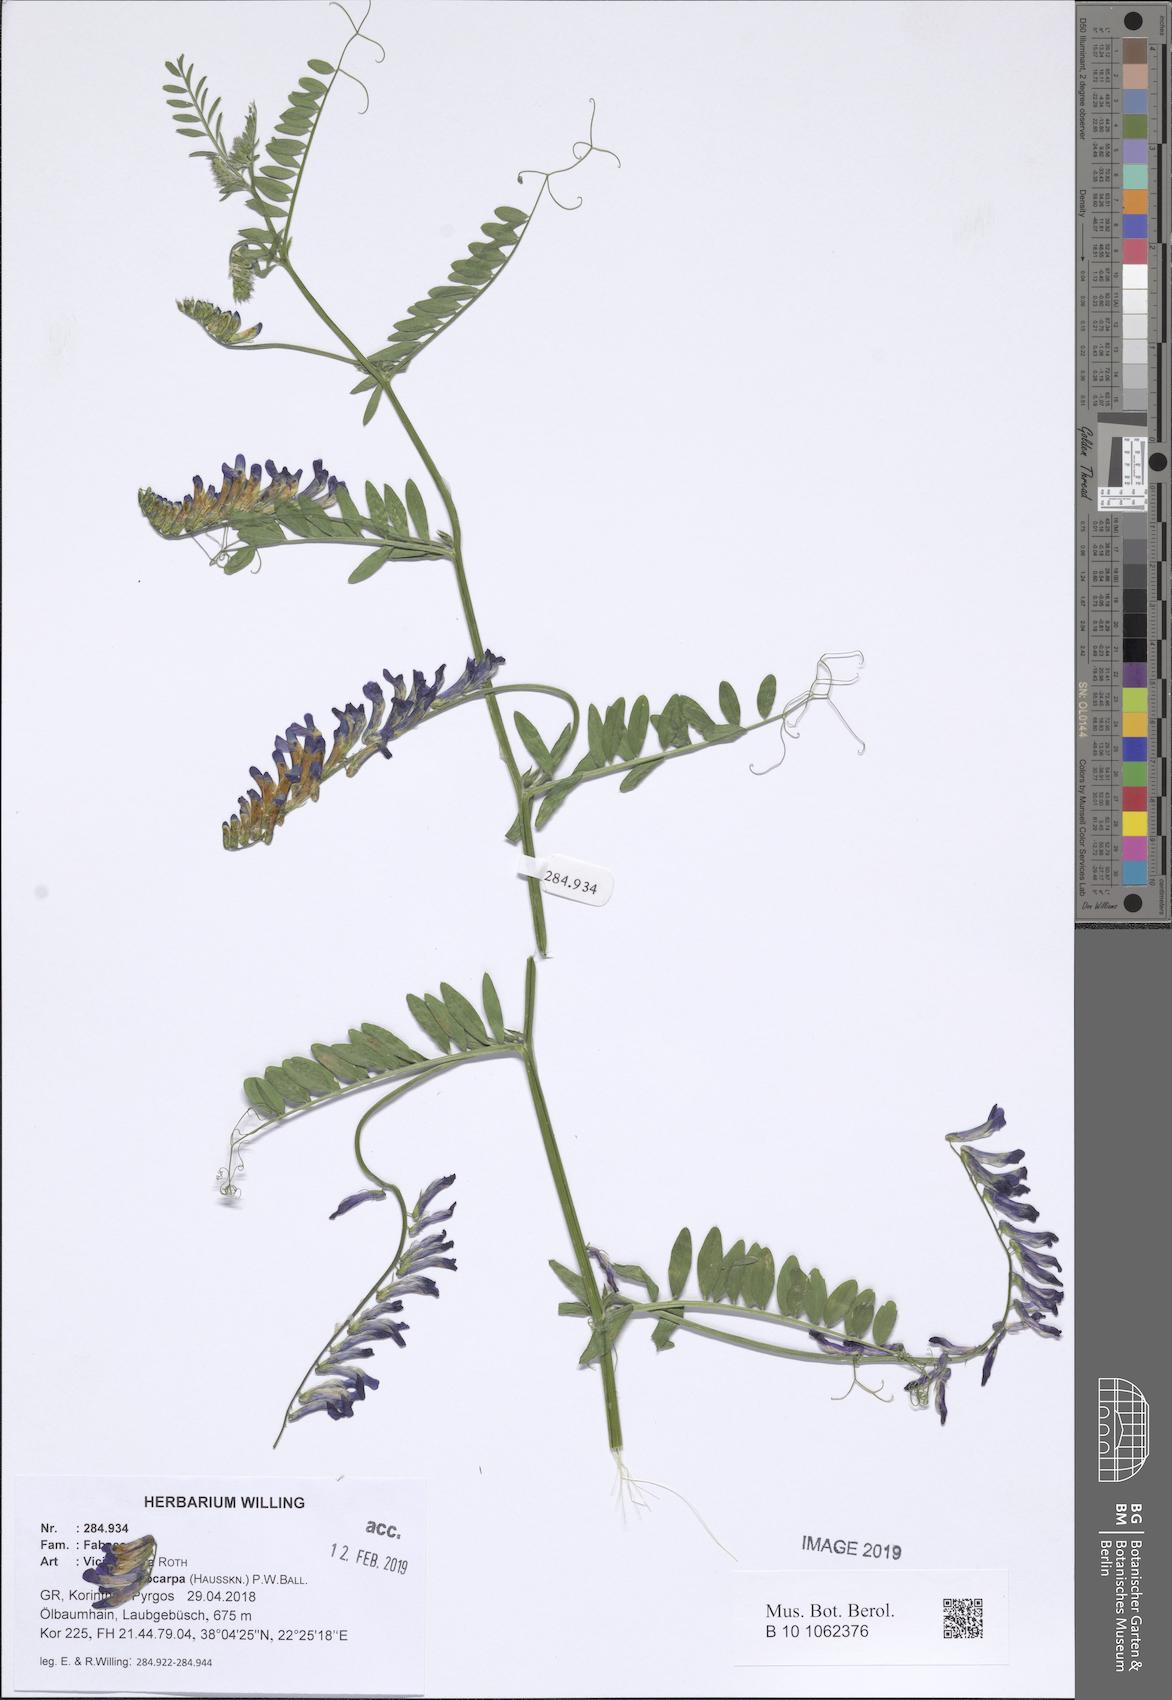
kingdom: Plantae
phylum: Tracheophyta
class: Magnoliopsida
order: Fabales
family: Fabaceae
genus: Vicia
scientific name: Vicia eriocarpa
